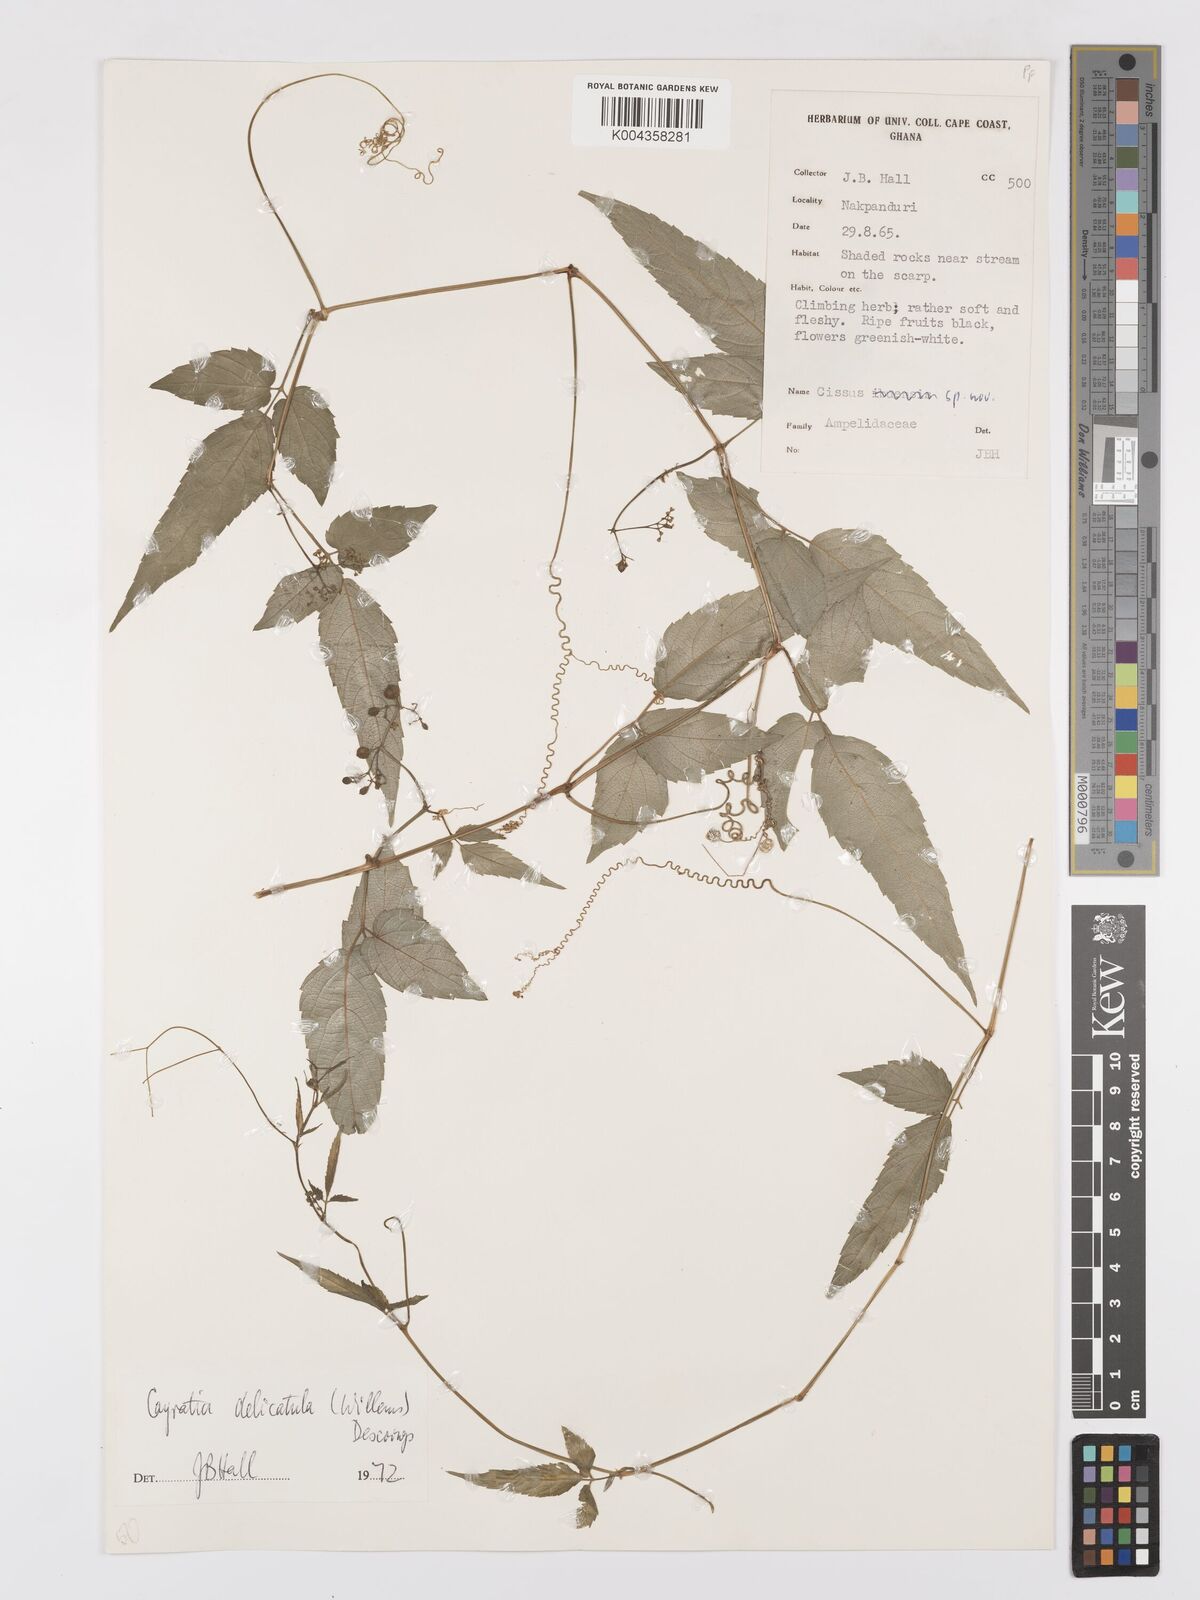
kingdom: Plantae
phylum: Tracheophyta
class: Magnoliopsida
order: Vitales
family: Vitaceae
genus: Afrocayratia
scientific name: Afrocayratia delicatula
